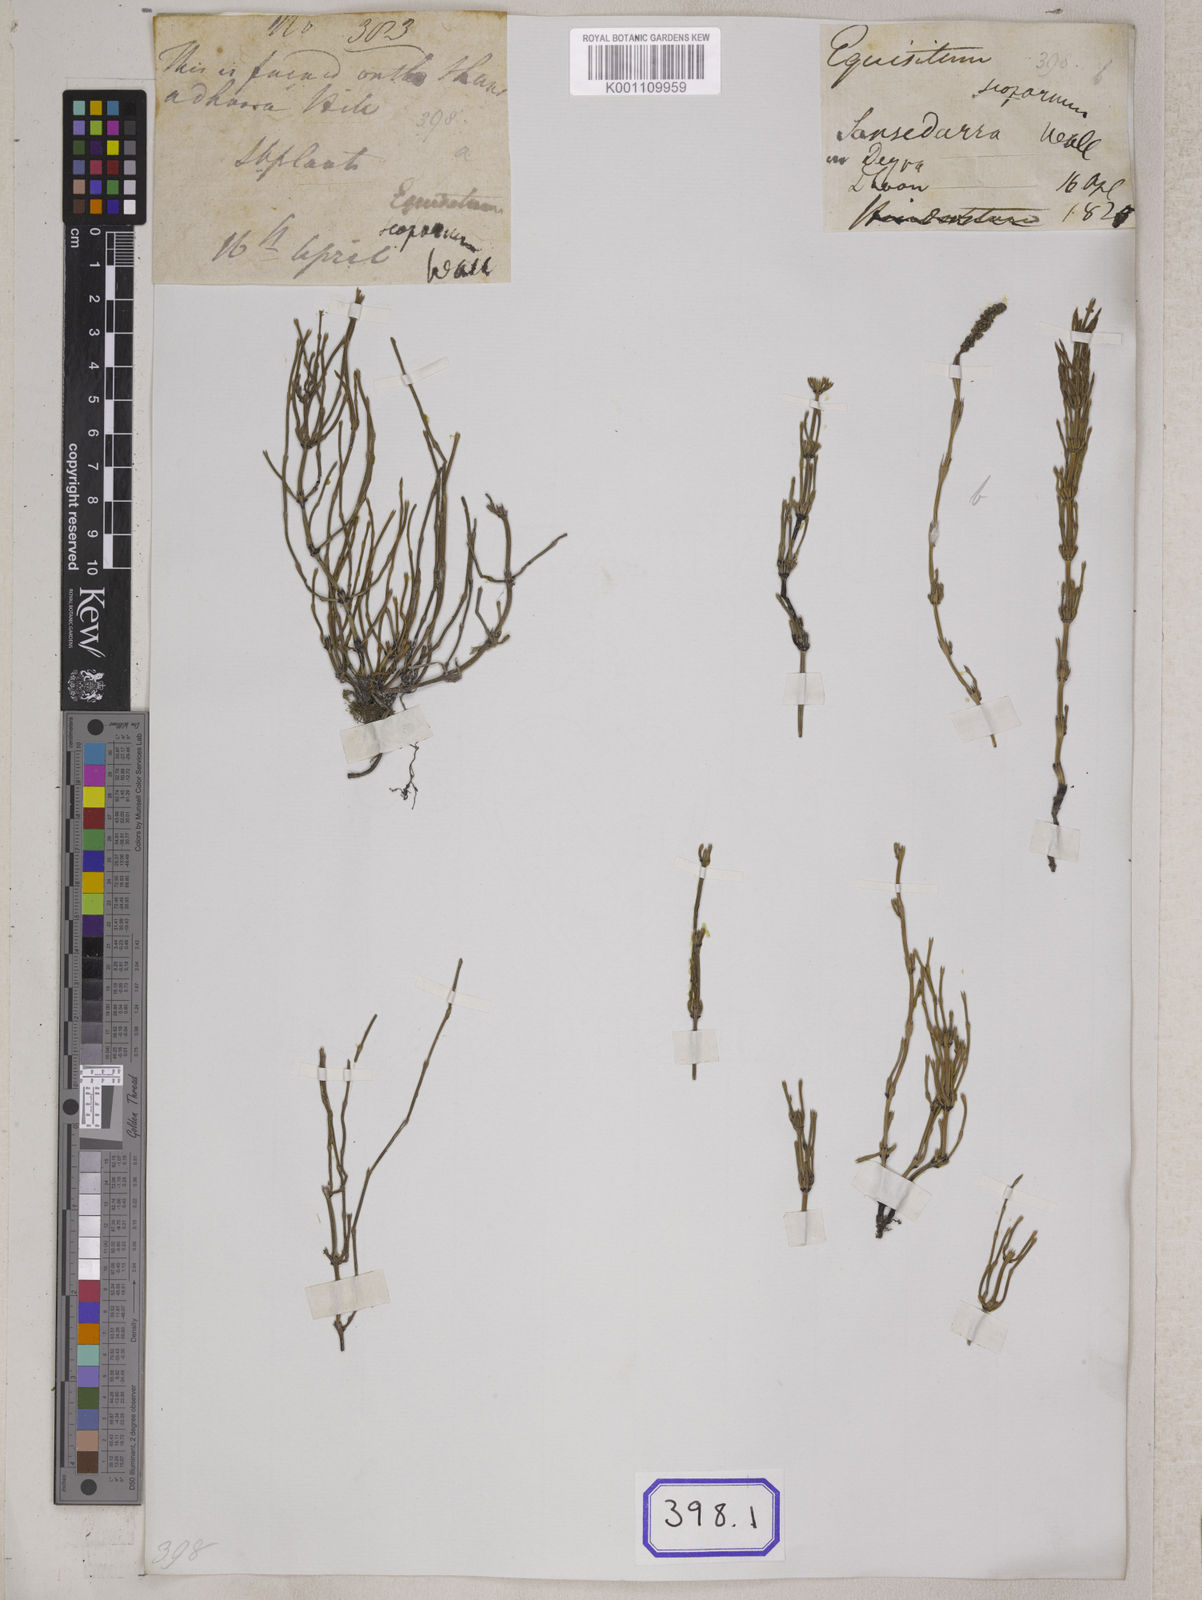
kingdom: Plantae
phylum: Tracheophyta
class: Polypodiopsida
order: Equisetales
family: Equisetaceae
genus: Equisetum
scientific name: Equisetum scoparium
